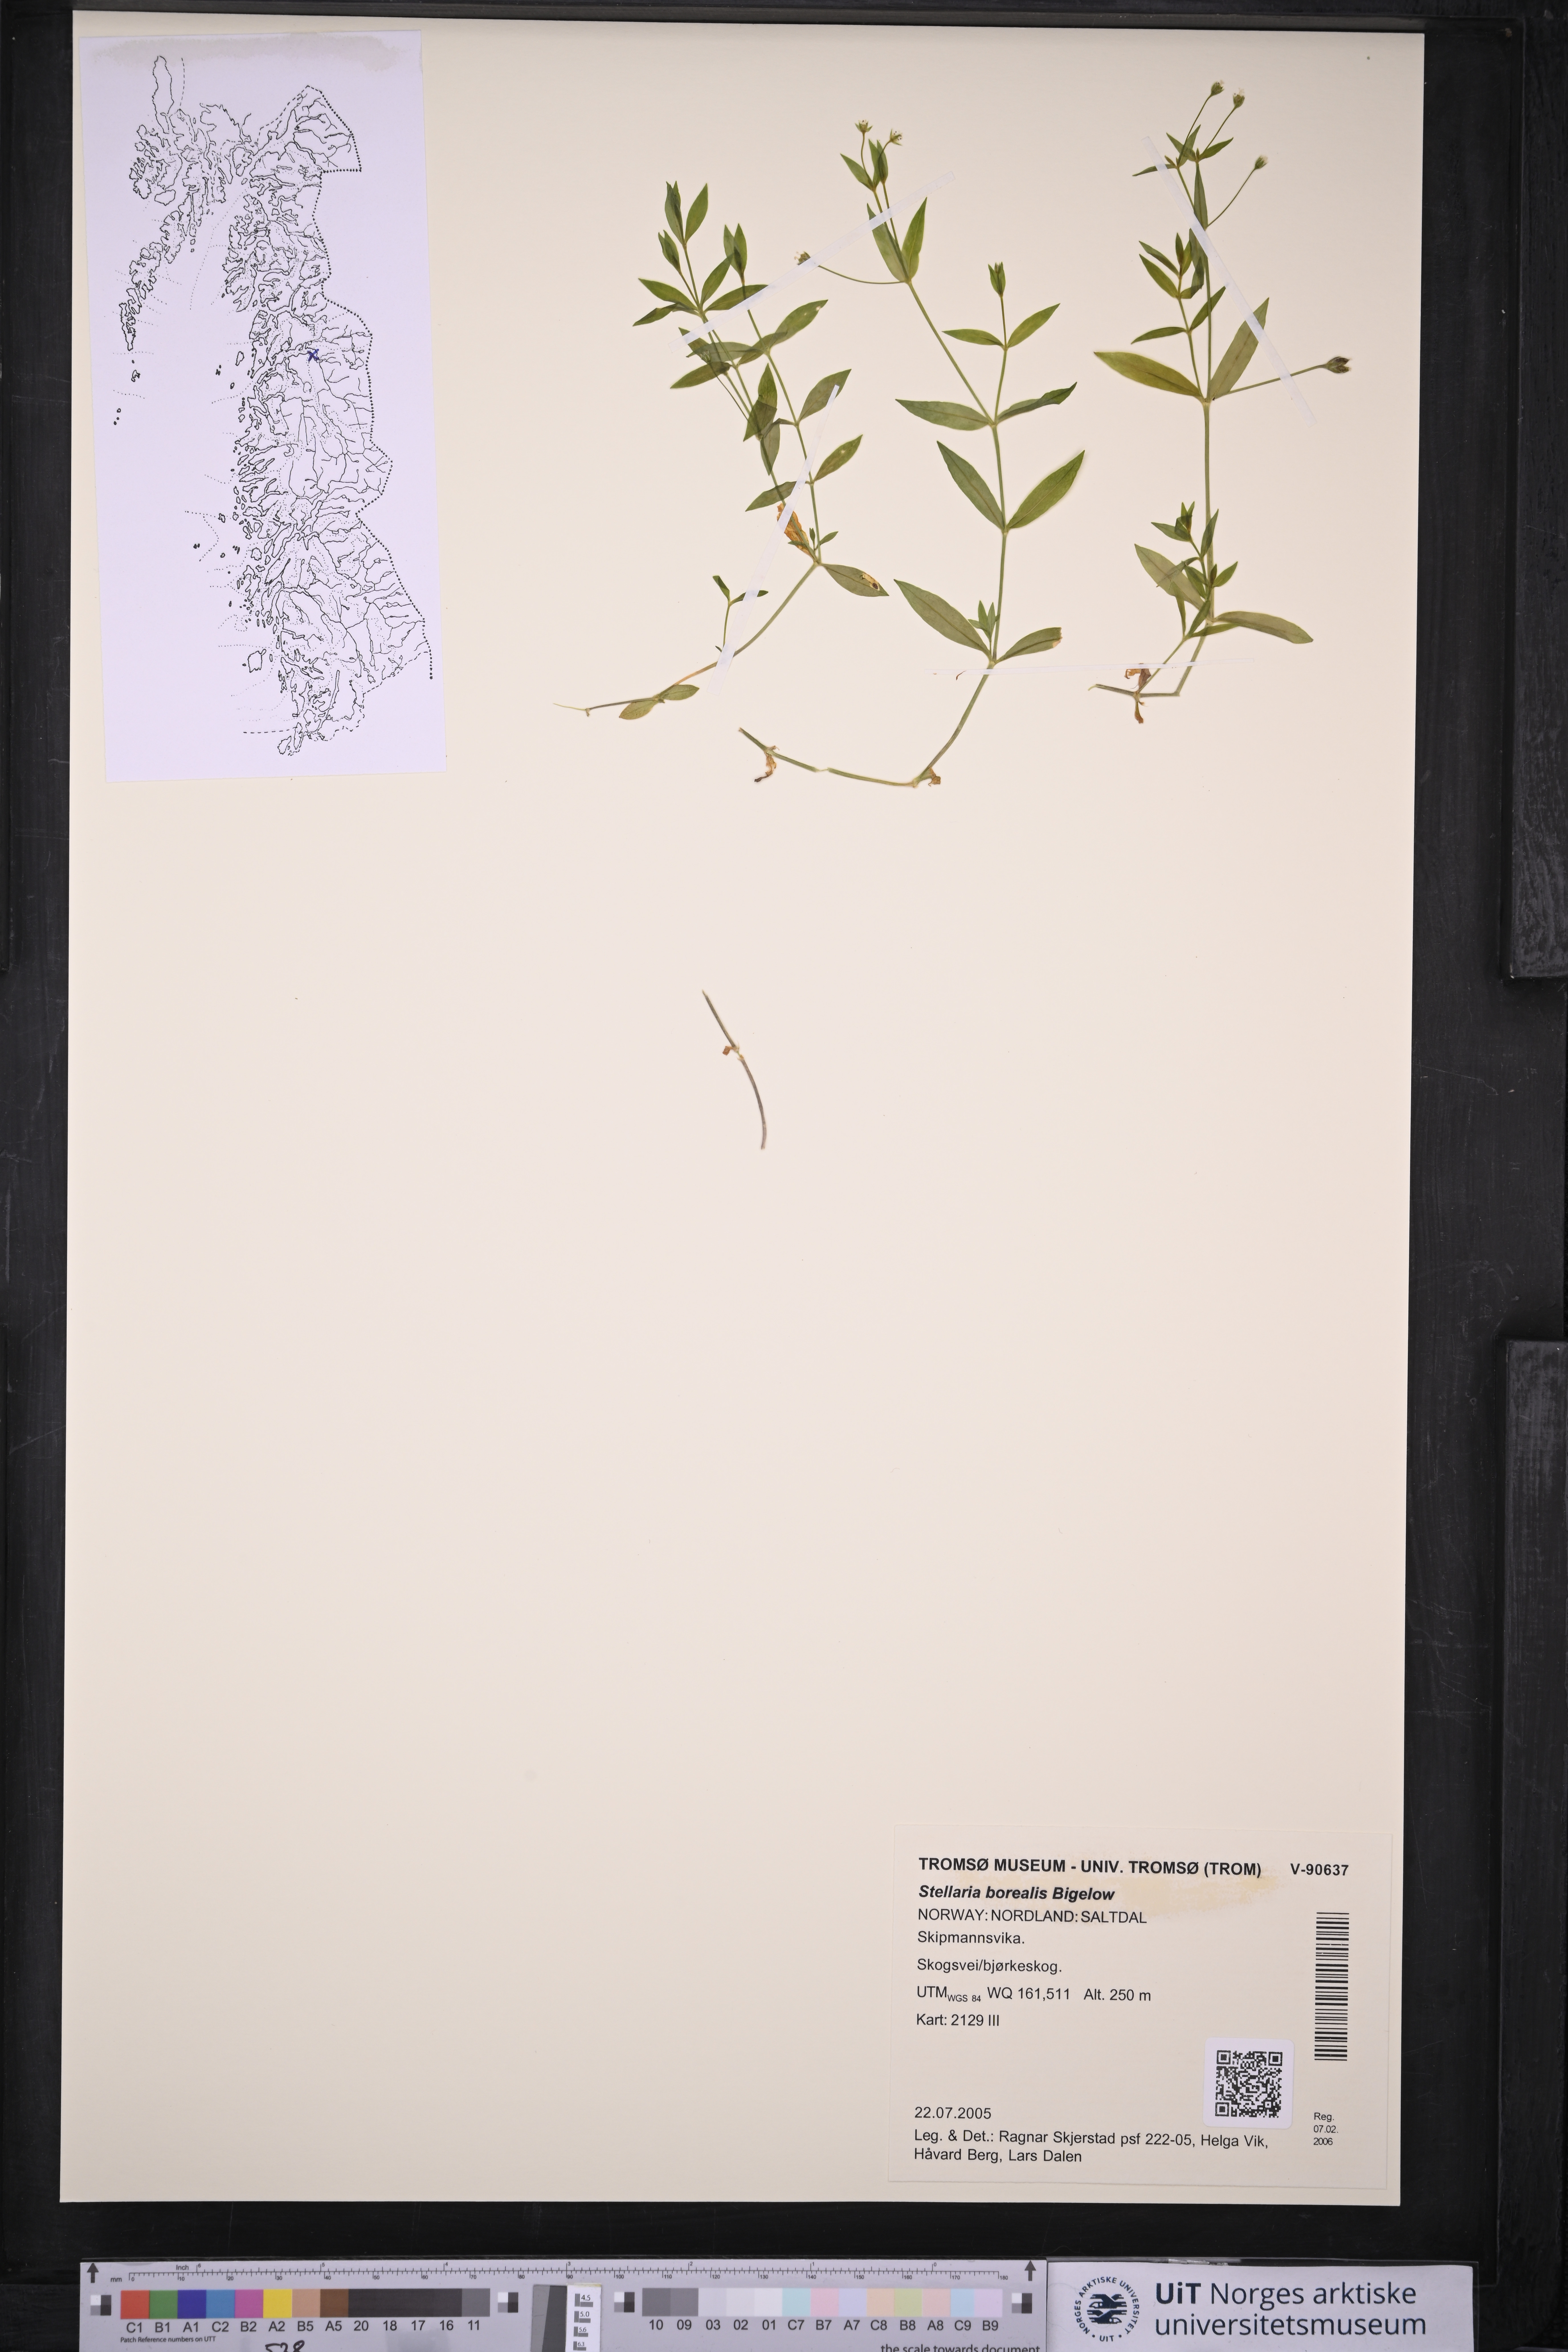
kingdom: Plantae
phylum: Tracheophyta
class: Magnoliopsida
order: Caryophyllales
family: Caryophyllaceae
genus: Stellaria
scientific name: Stellaria borealis
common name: Boreal starwort
